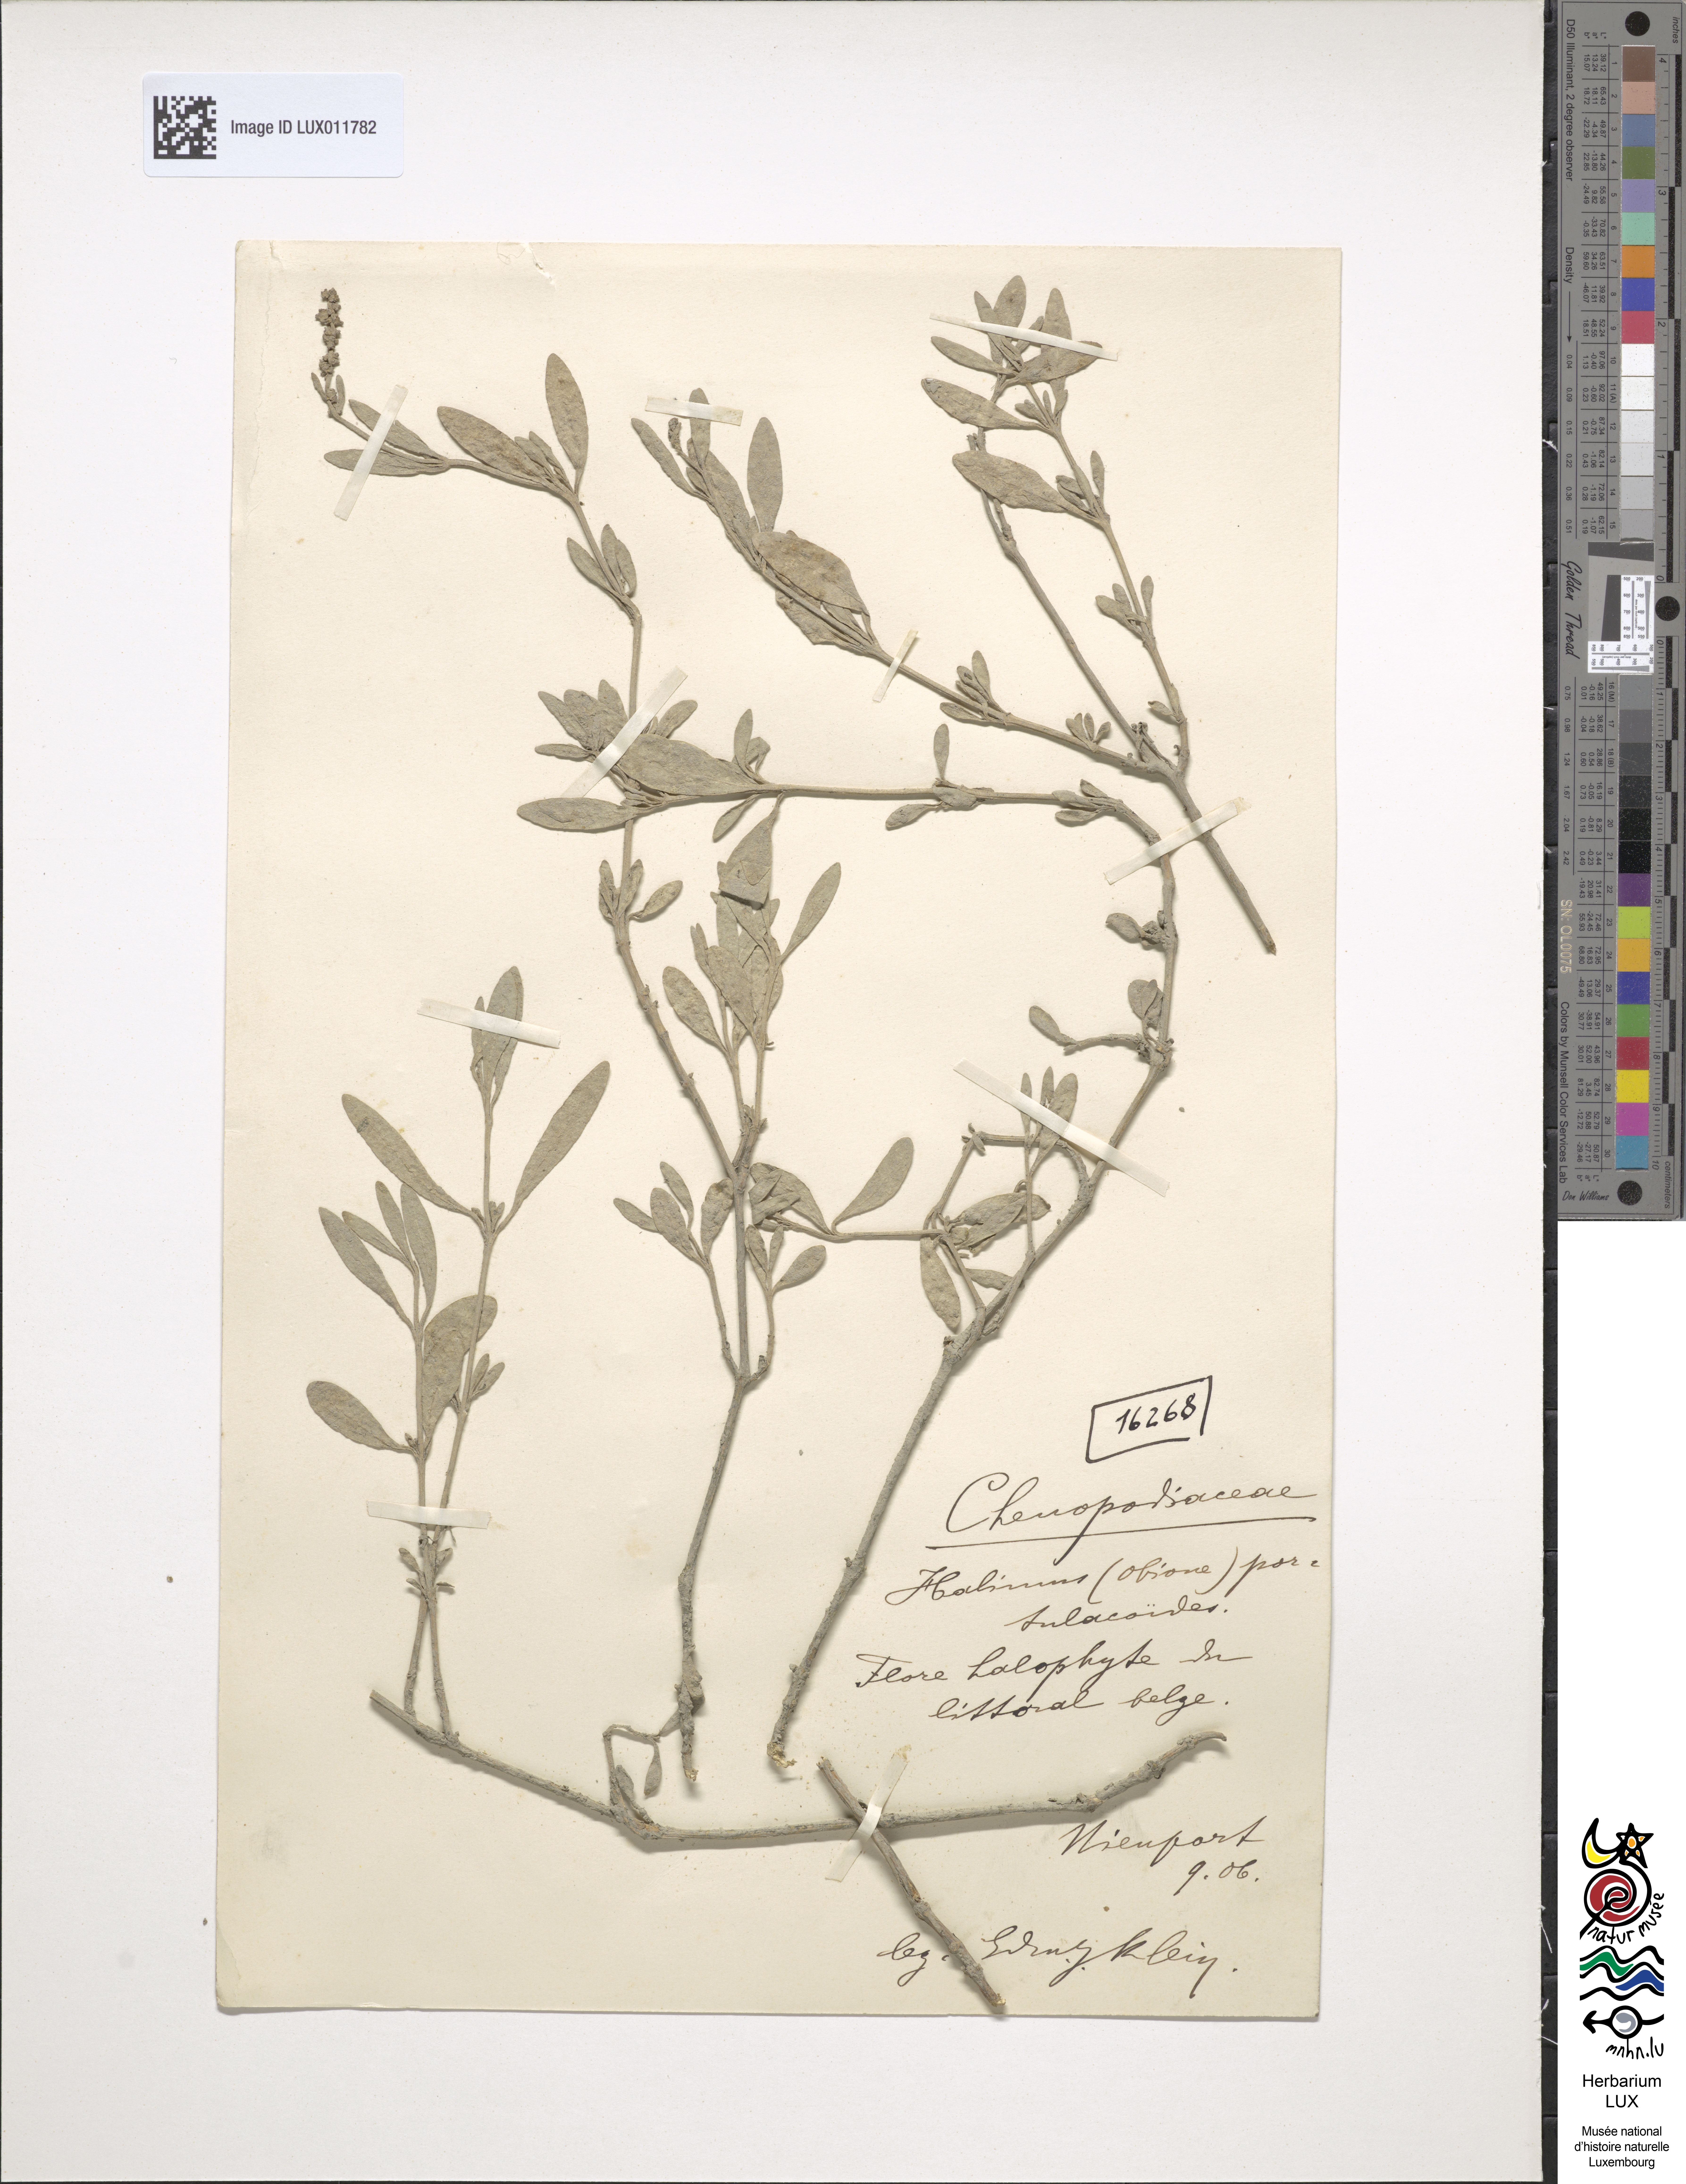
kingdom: Plantae
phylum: Tracheophyta
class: Magnoliopsida
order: Caryophyllales
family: Amaranthaceae
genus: Halimione
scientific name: Halimione portulacoides
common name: Sea-purslane
